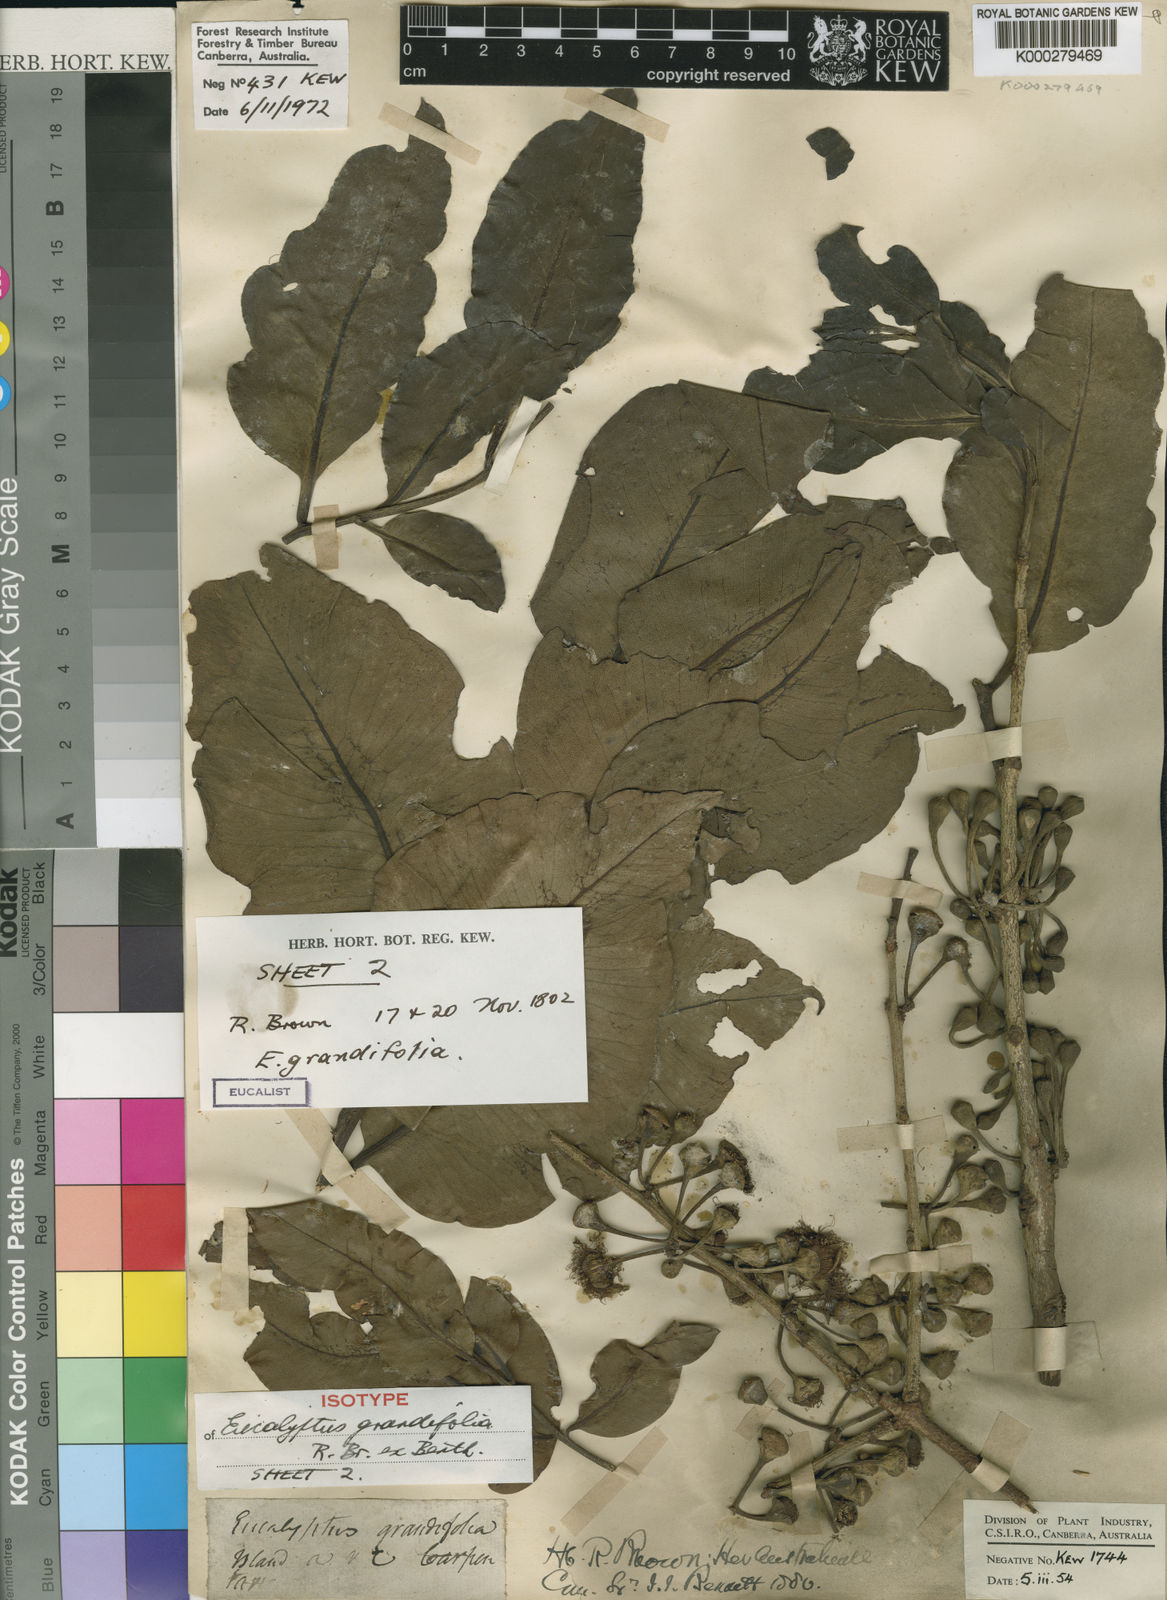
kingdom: Plantae
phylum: Tracheophyta
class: Magnoliopsida
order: Myrtales
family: Myrtaceae
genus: Corymbia
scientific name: Corymbia grandifolia
